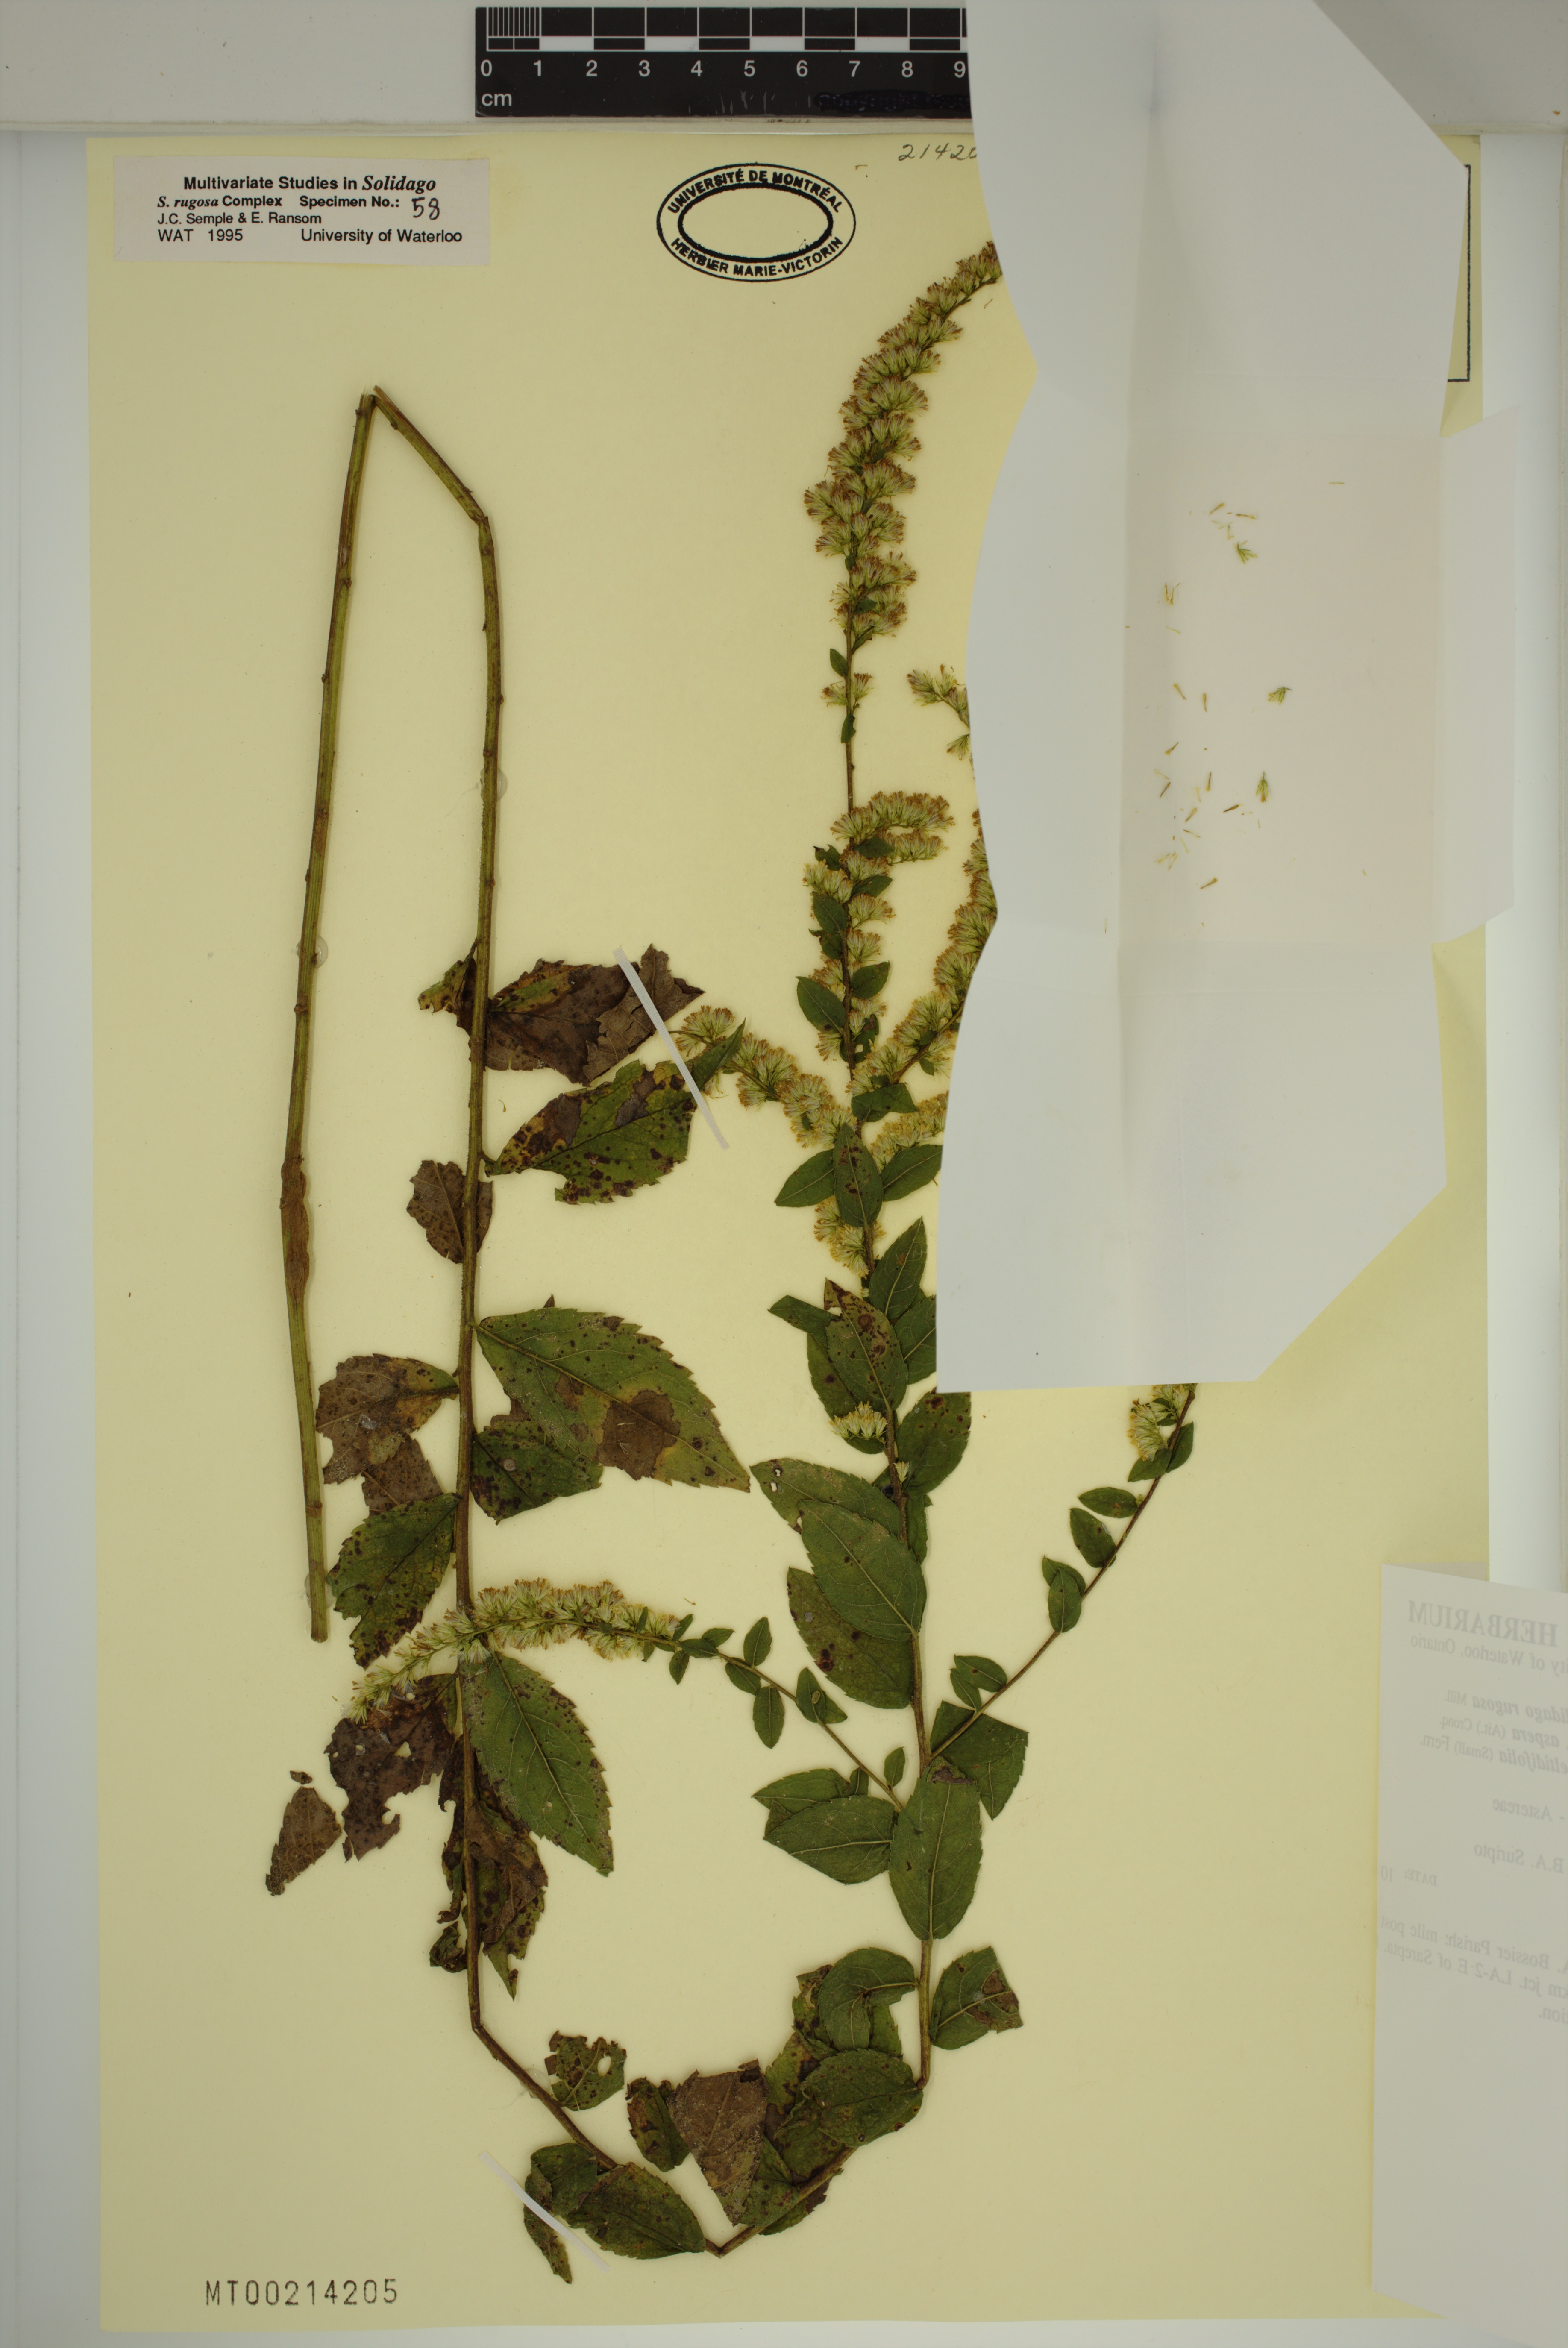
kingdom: Plantae
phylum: Tracheophyta
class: Magnoliopsida
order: Asterales
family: Asteraceae
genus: Solidago
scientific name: Solidago rugosa
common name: Rough-stemmed goldenrod
